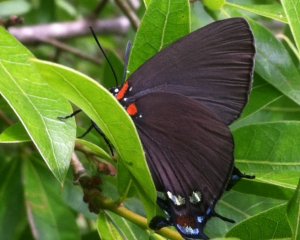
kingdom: Animalia
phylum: Arthropoda
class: Insecta
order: Lepidoptera
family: Lycaenidae
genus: Atlides
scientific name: Atlides halesus
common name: Great Purple Hairstreak
